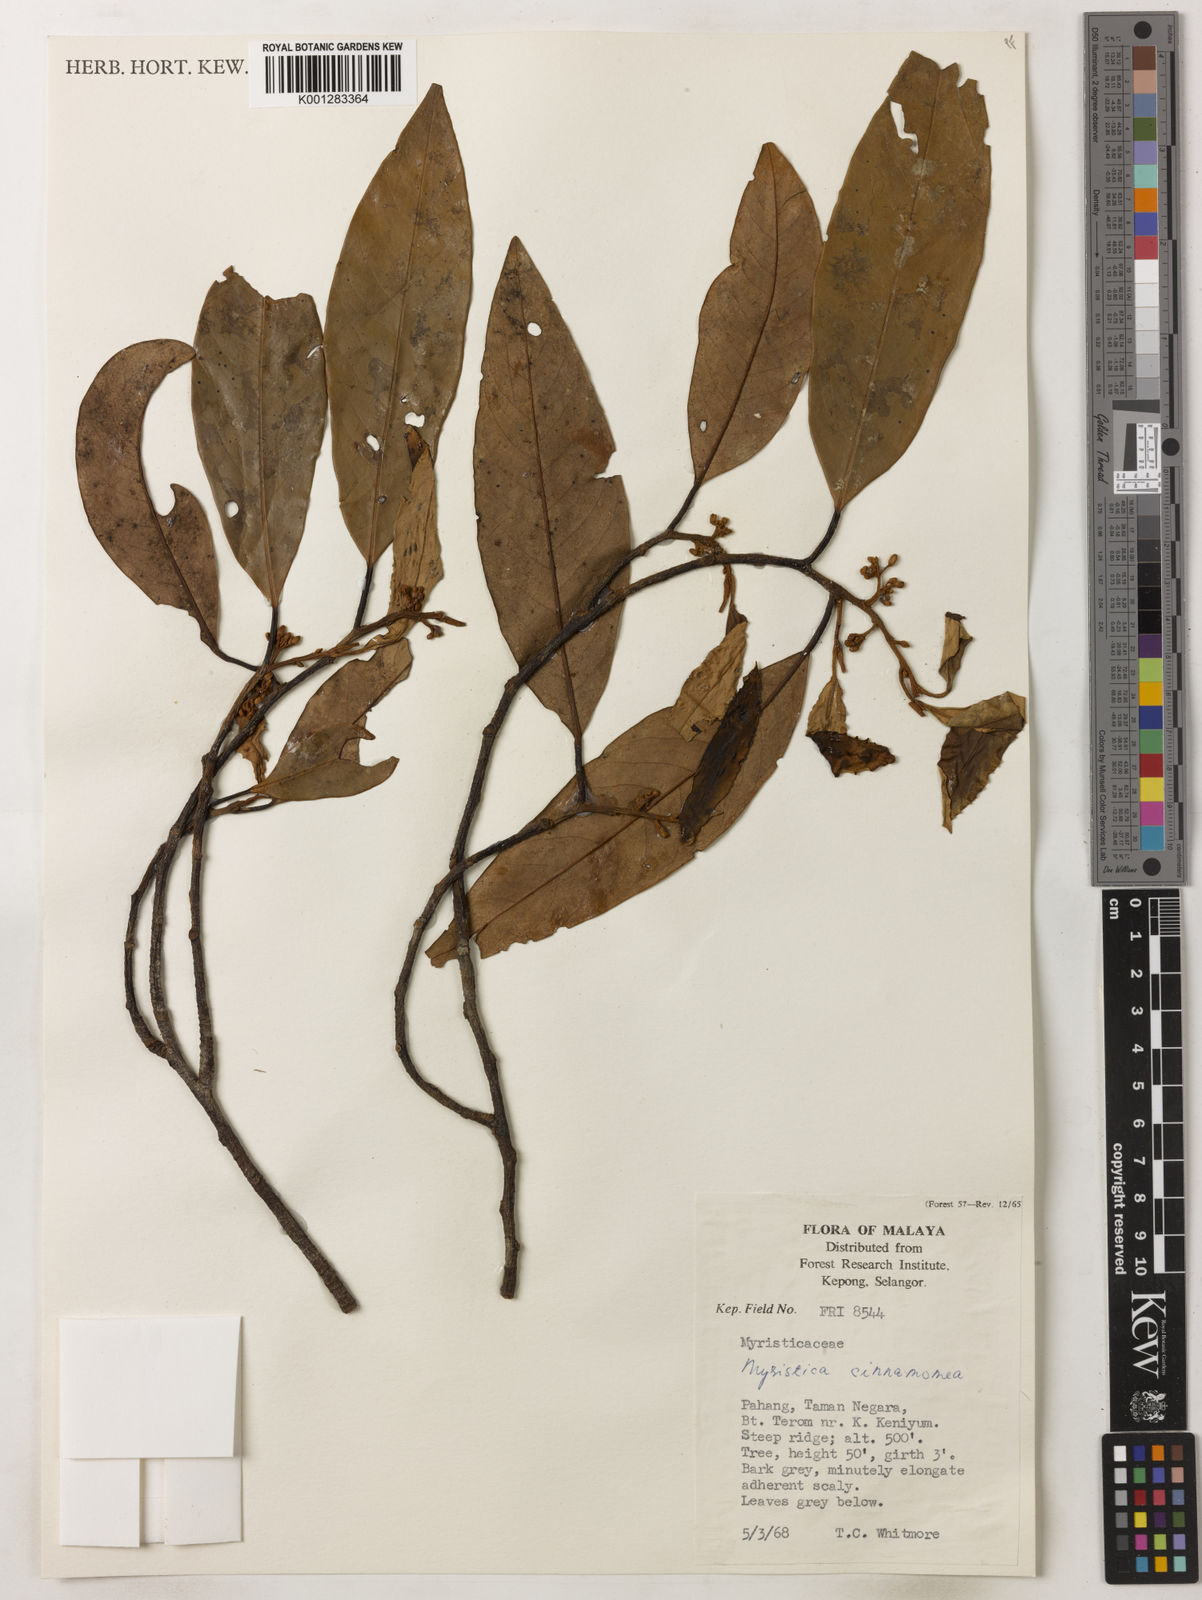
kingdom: Plantae
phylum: Tracheophyta
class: Magnoliopsida
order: Magnoliales
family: Myristicaceae
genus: Myristica
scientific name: Myristica cinnamomea
